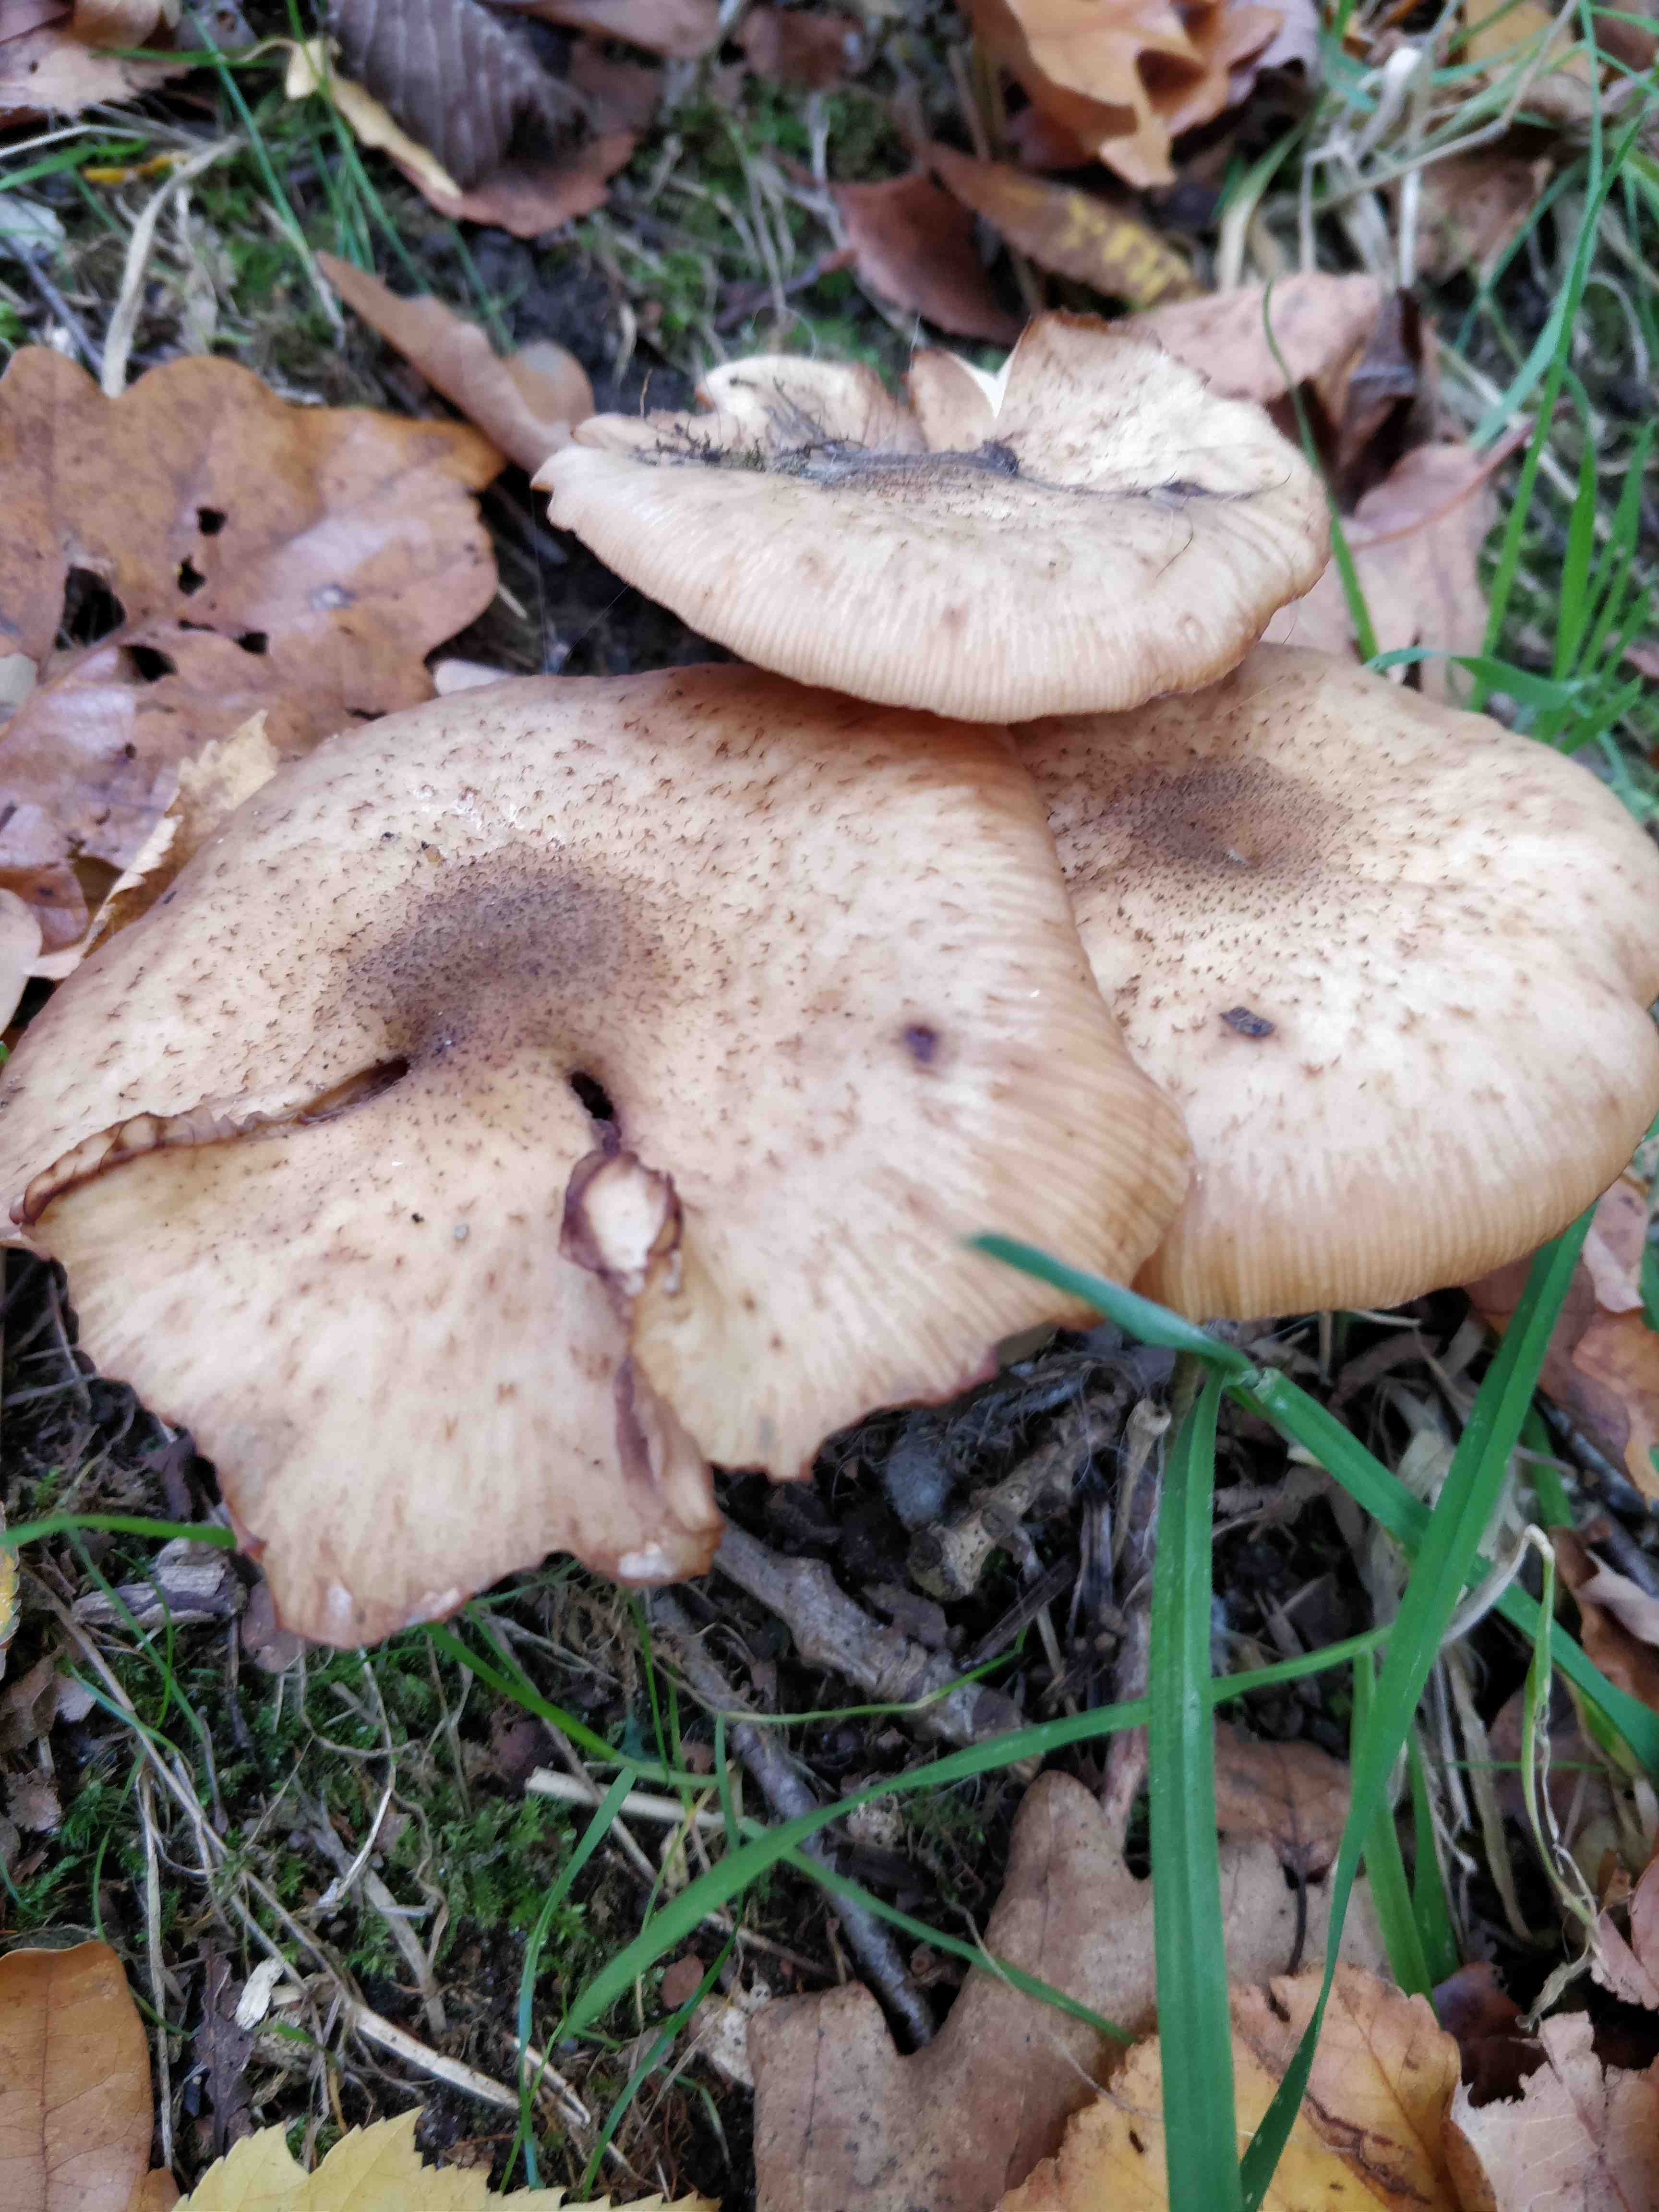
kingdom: Fungi
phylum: Basidiomycota
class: Agaricomycetes
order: Agaricales
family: Physalacriaceae
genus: Armillaria
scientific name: Armillaria lutea
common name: køllestokket honningsvamp
